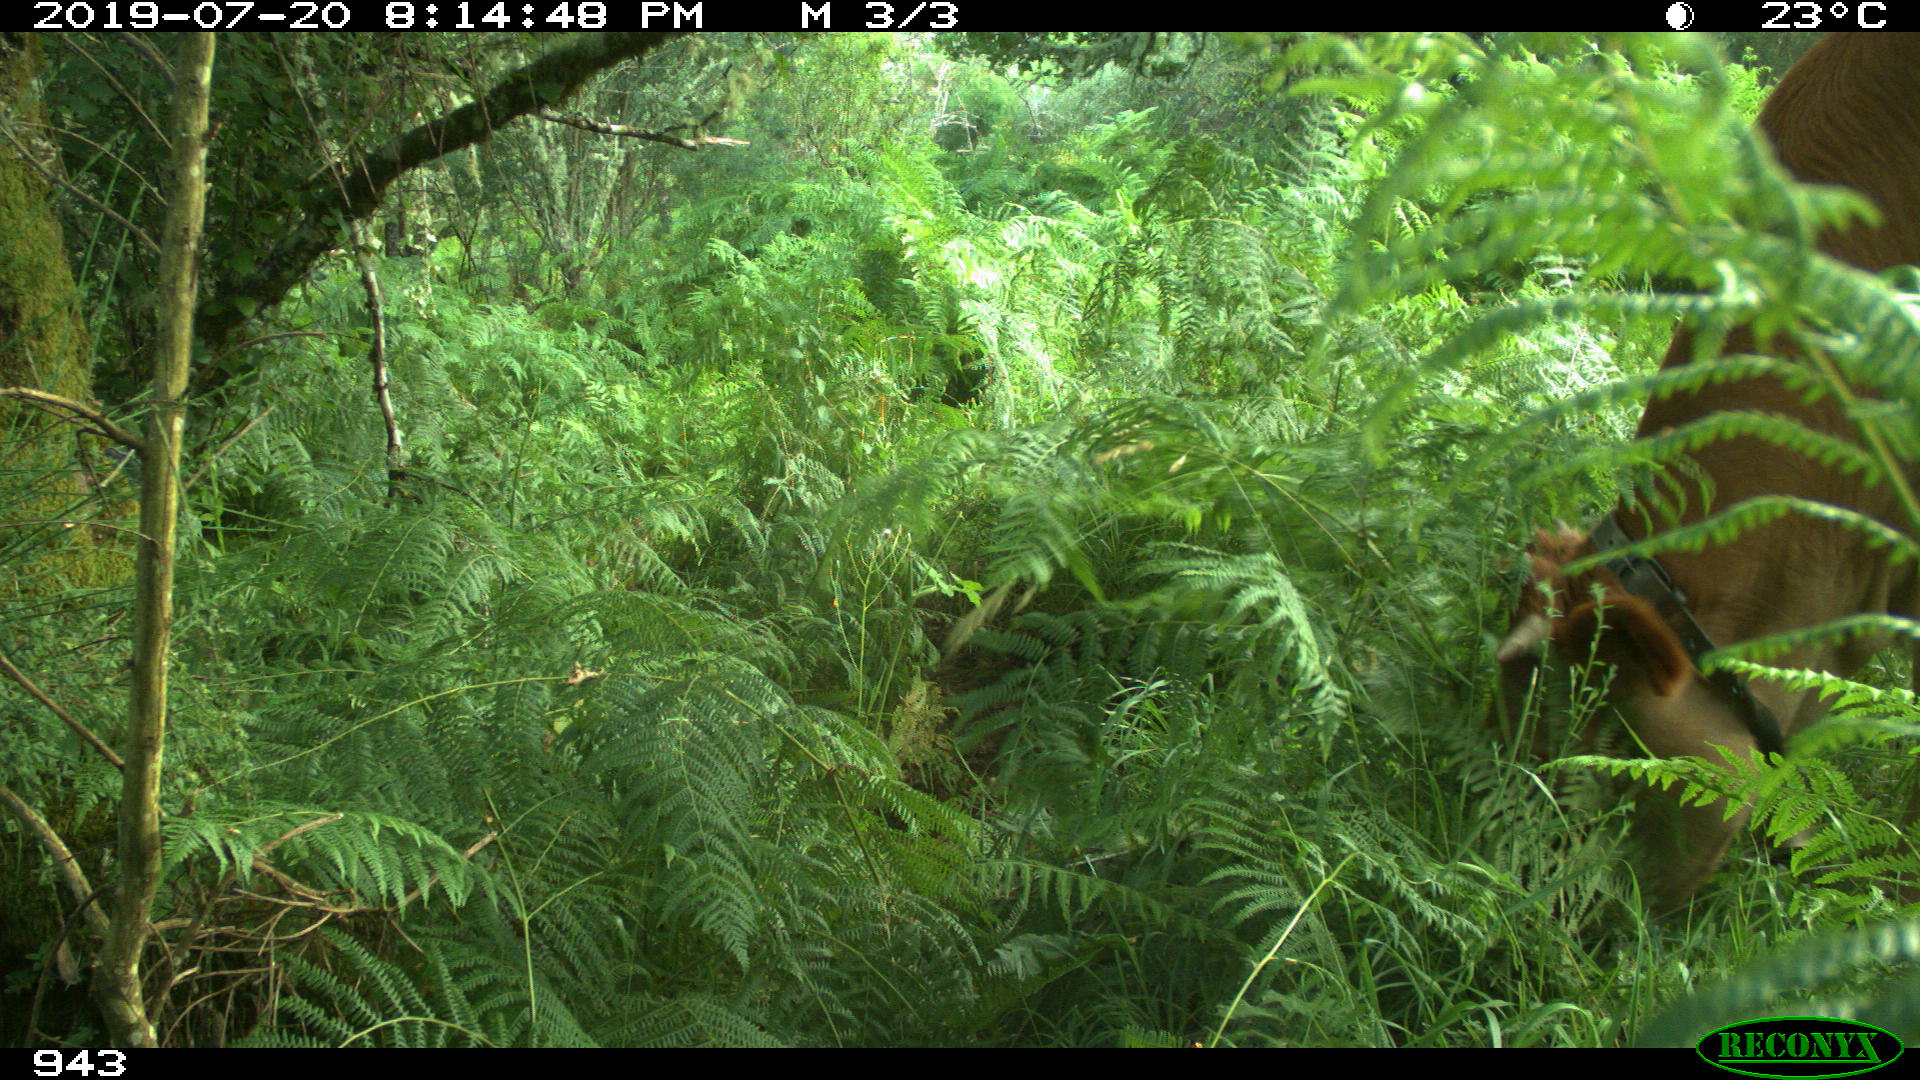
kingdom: Animalia
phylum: Chordata
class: Mammalia
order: Artiodactyla
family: Bovidae
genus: Bos
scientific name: Bos taurus
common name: Domesticated cattle
